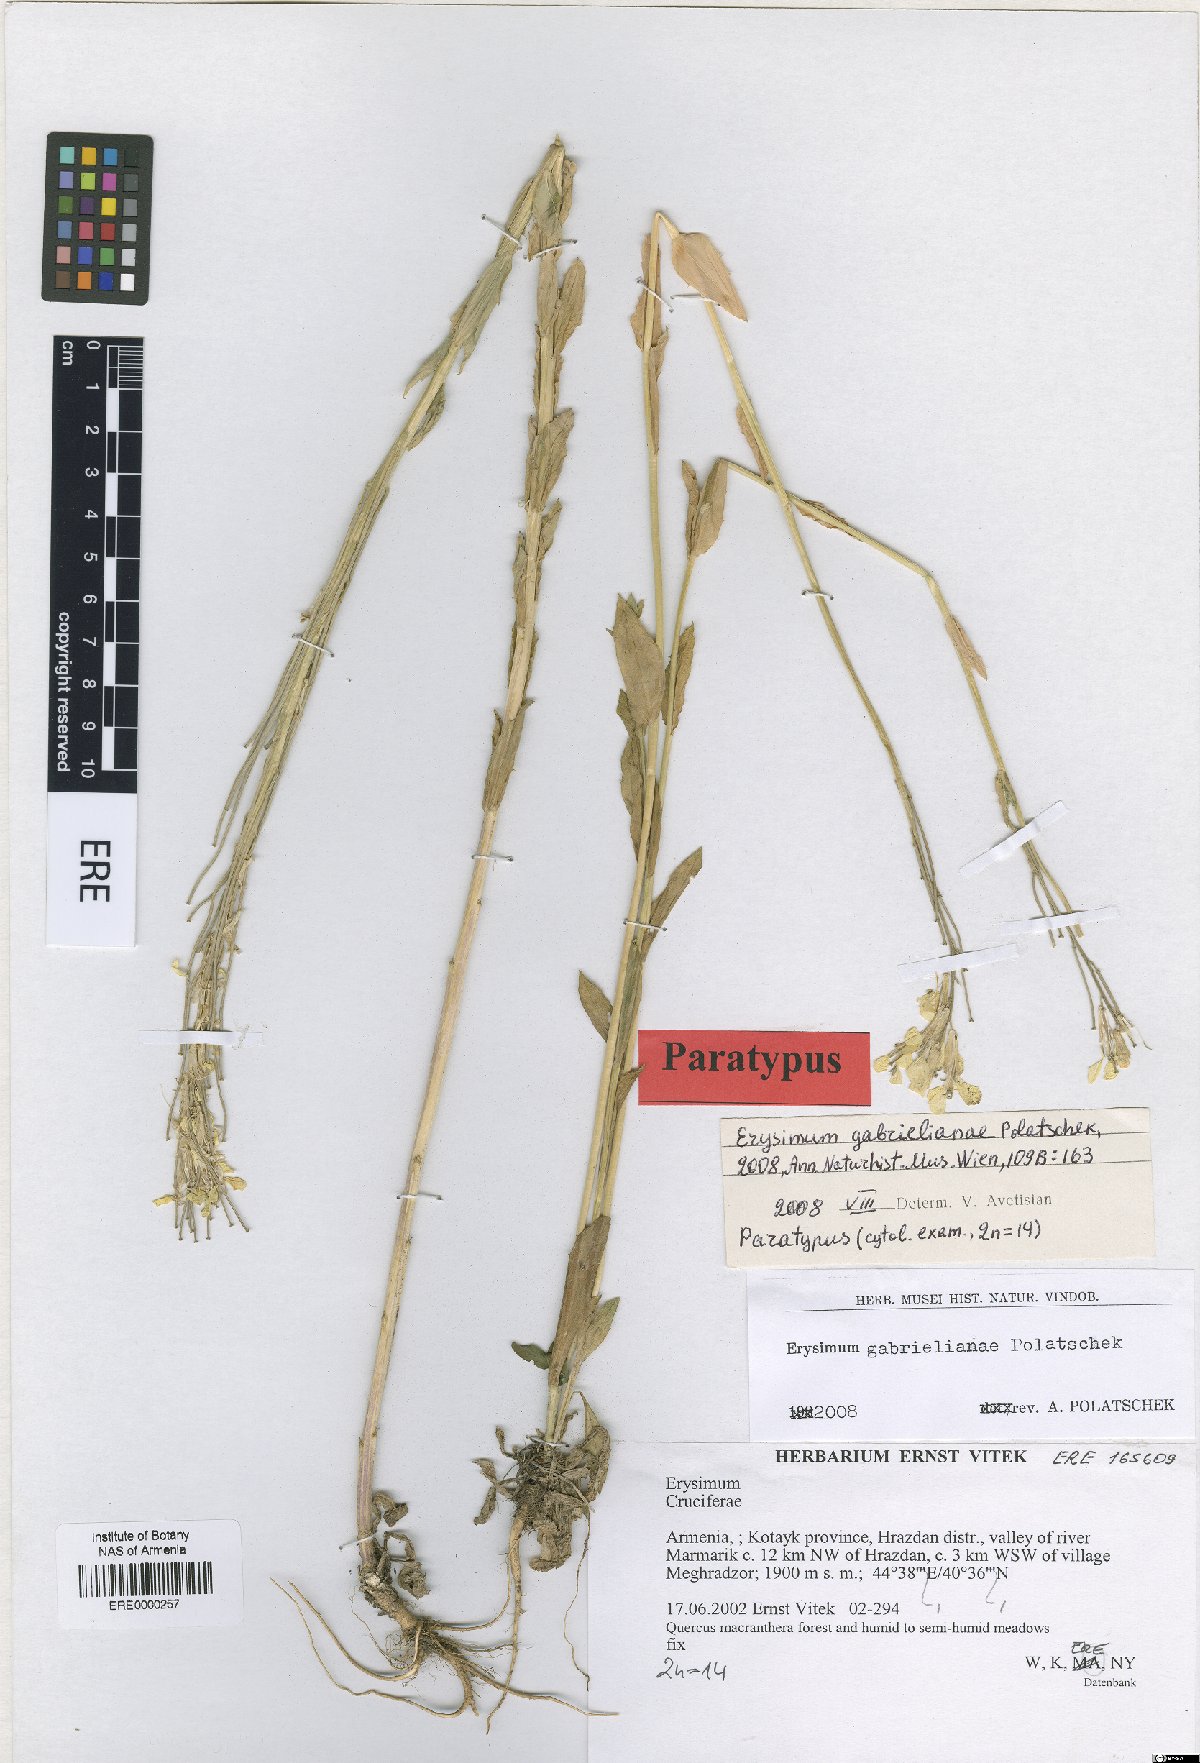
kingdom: Plantae
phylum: Tracheophyta
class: Magnoliopsida
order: Brassicales
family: Brassicaceae
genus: Erysimum
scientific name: Erysimum ibericum
